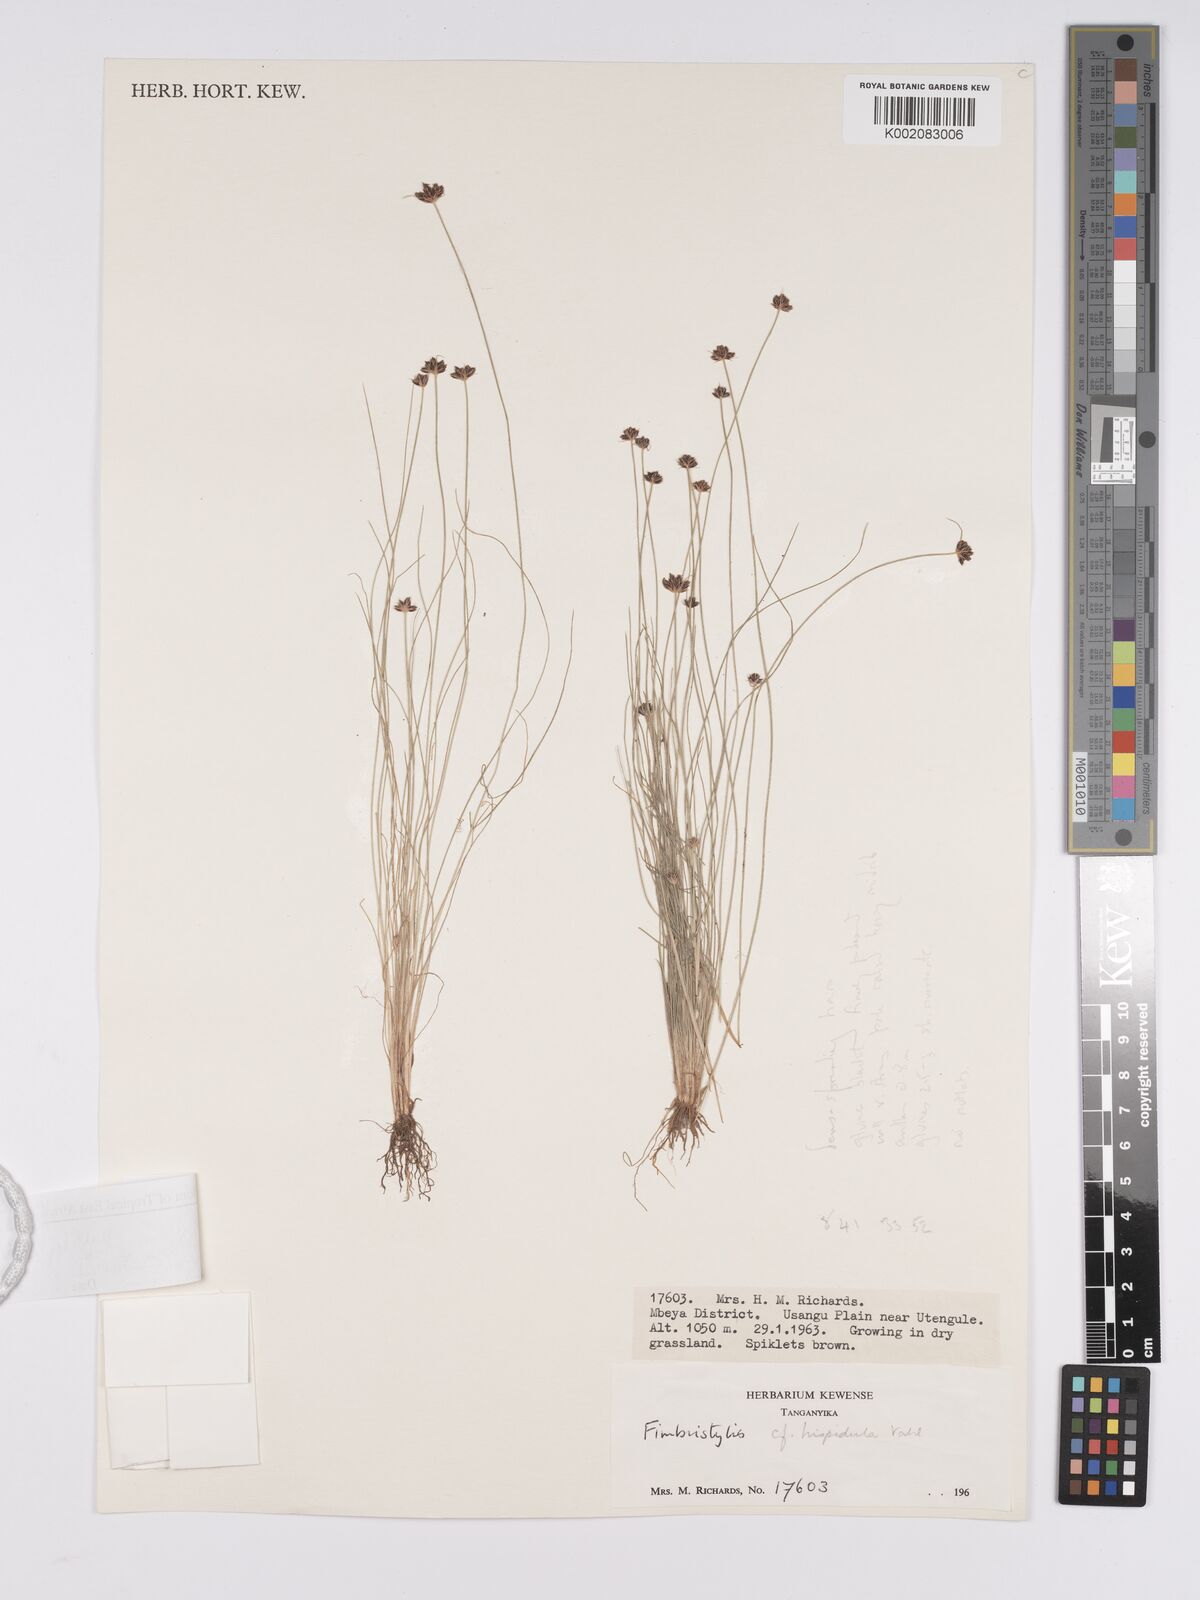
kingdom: Plantae
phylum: Tracheophyta
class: Liliopsida
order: Poales
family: Cyperaceae
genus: Bulbostylis
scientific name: Bulbostylis hispidula
